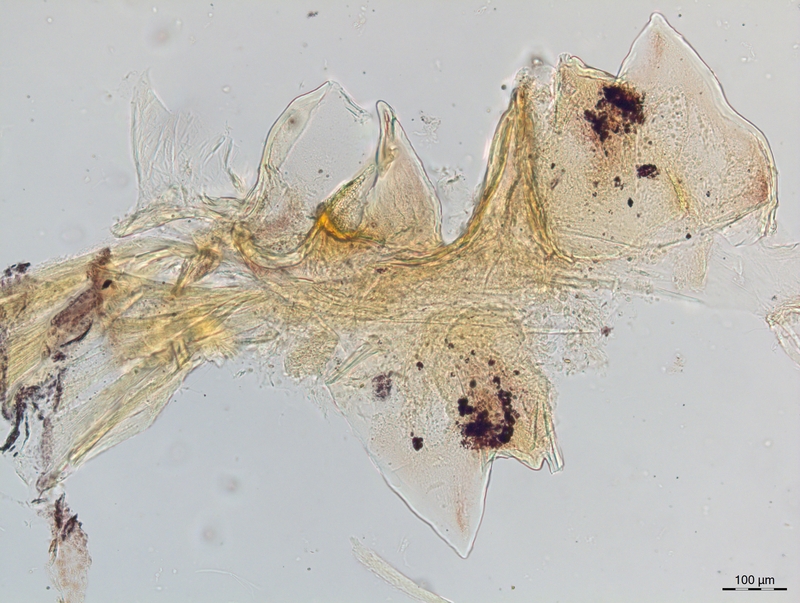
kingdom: Animalia
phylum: Arthropoda
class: Diplopoda
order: Chordeumatida
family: Craspedosomatidae
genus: Craspedosoma
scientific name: Craspedosoma transsilvanicum
